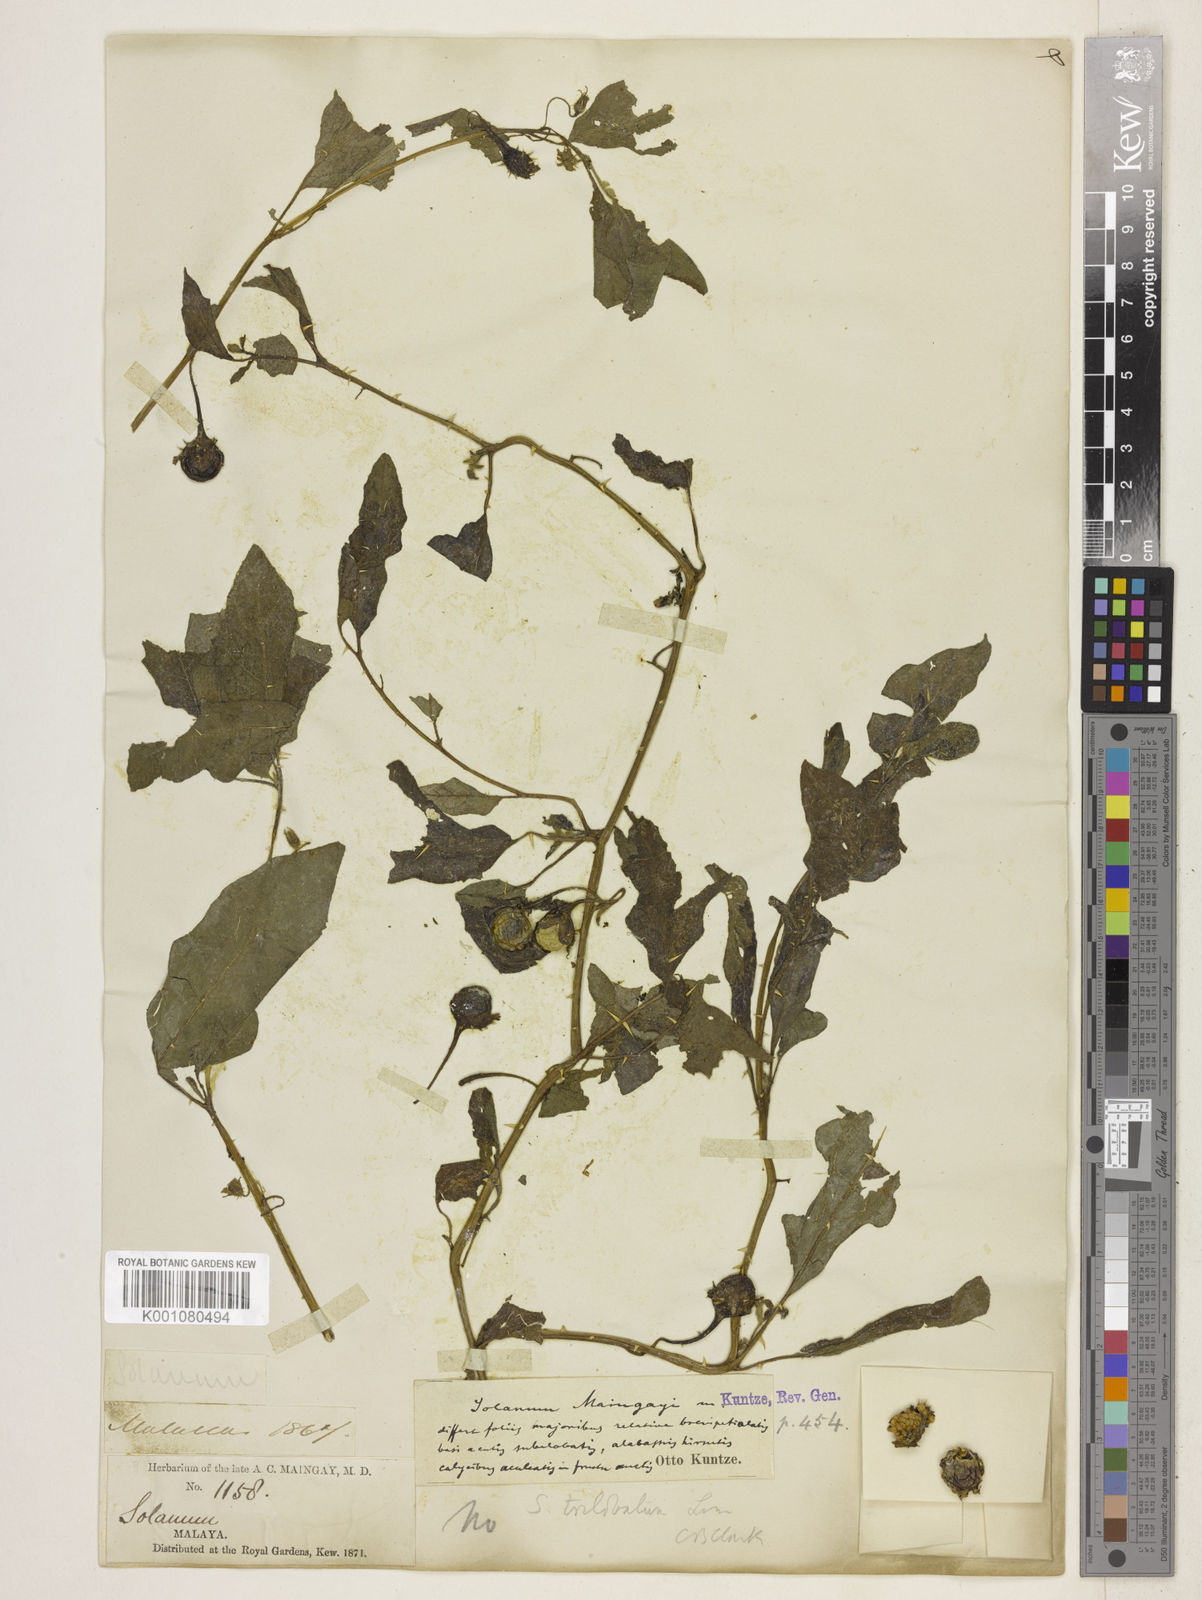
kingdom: Plantae
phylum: Tracheophyta
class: Magnoliopsida
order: Solanales
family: Solanaceae
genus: Solanum
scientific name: Solanum lanceifolium
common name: Lanceleaf nightshade
